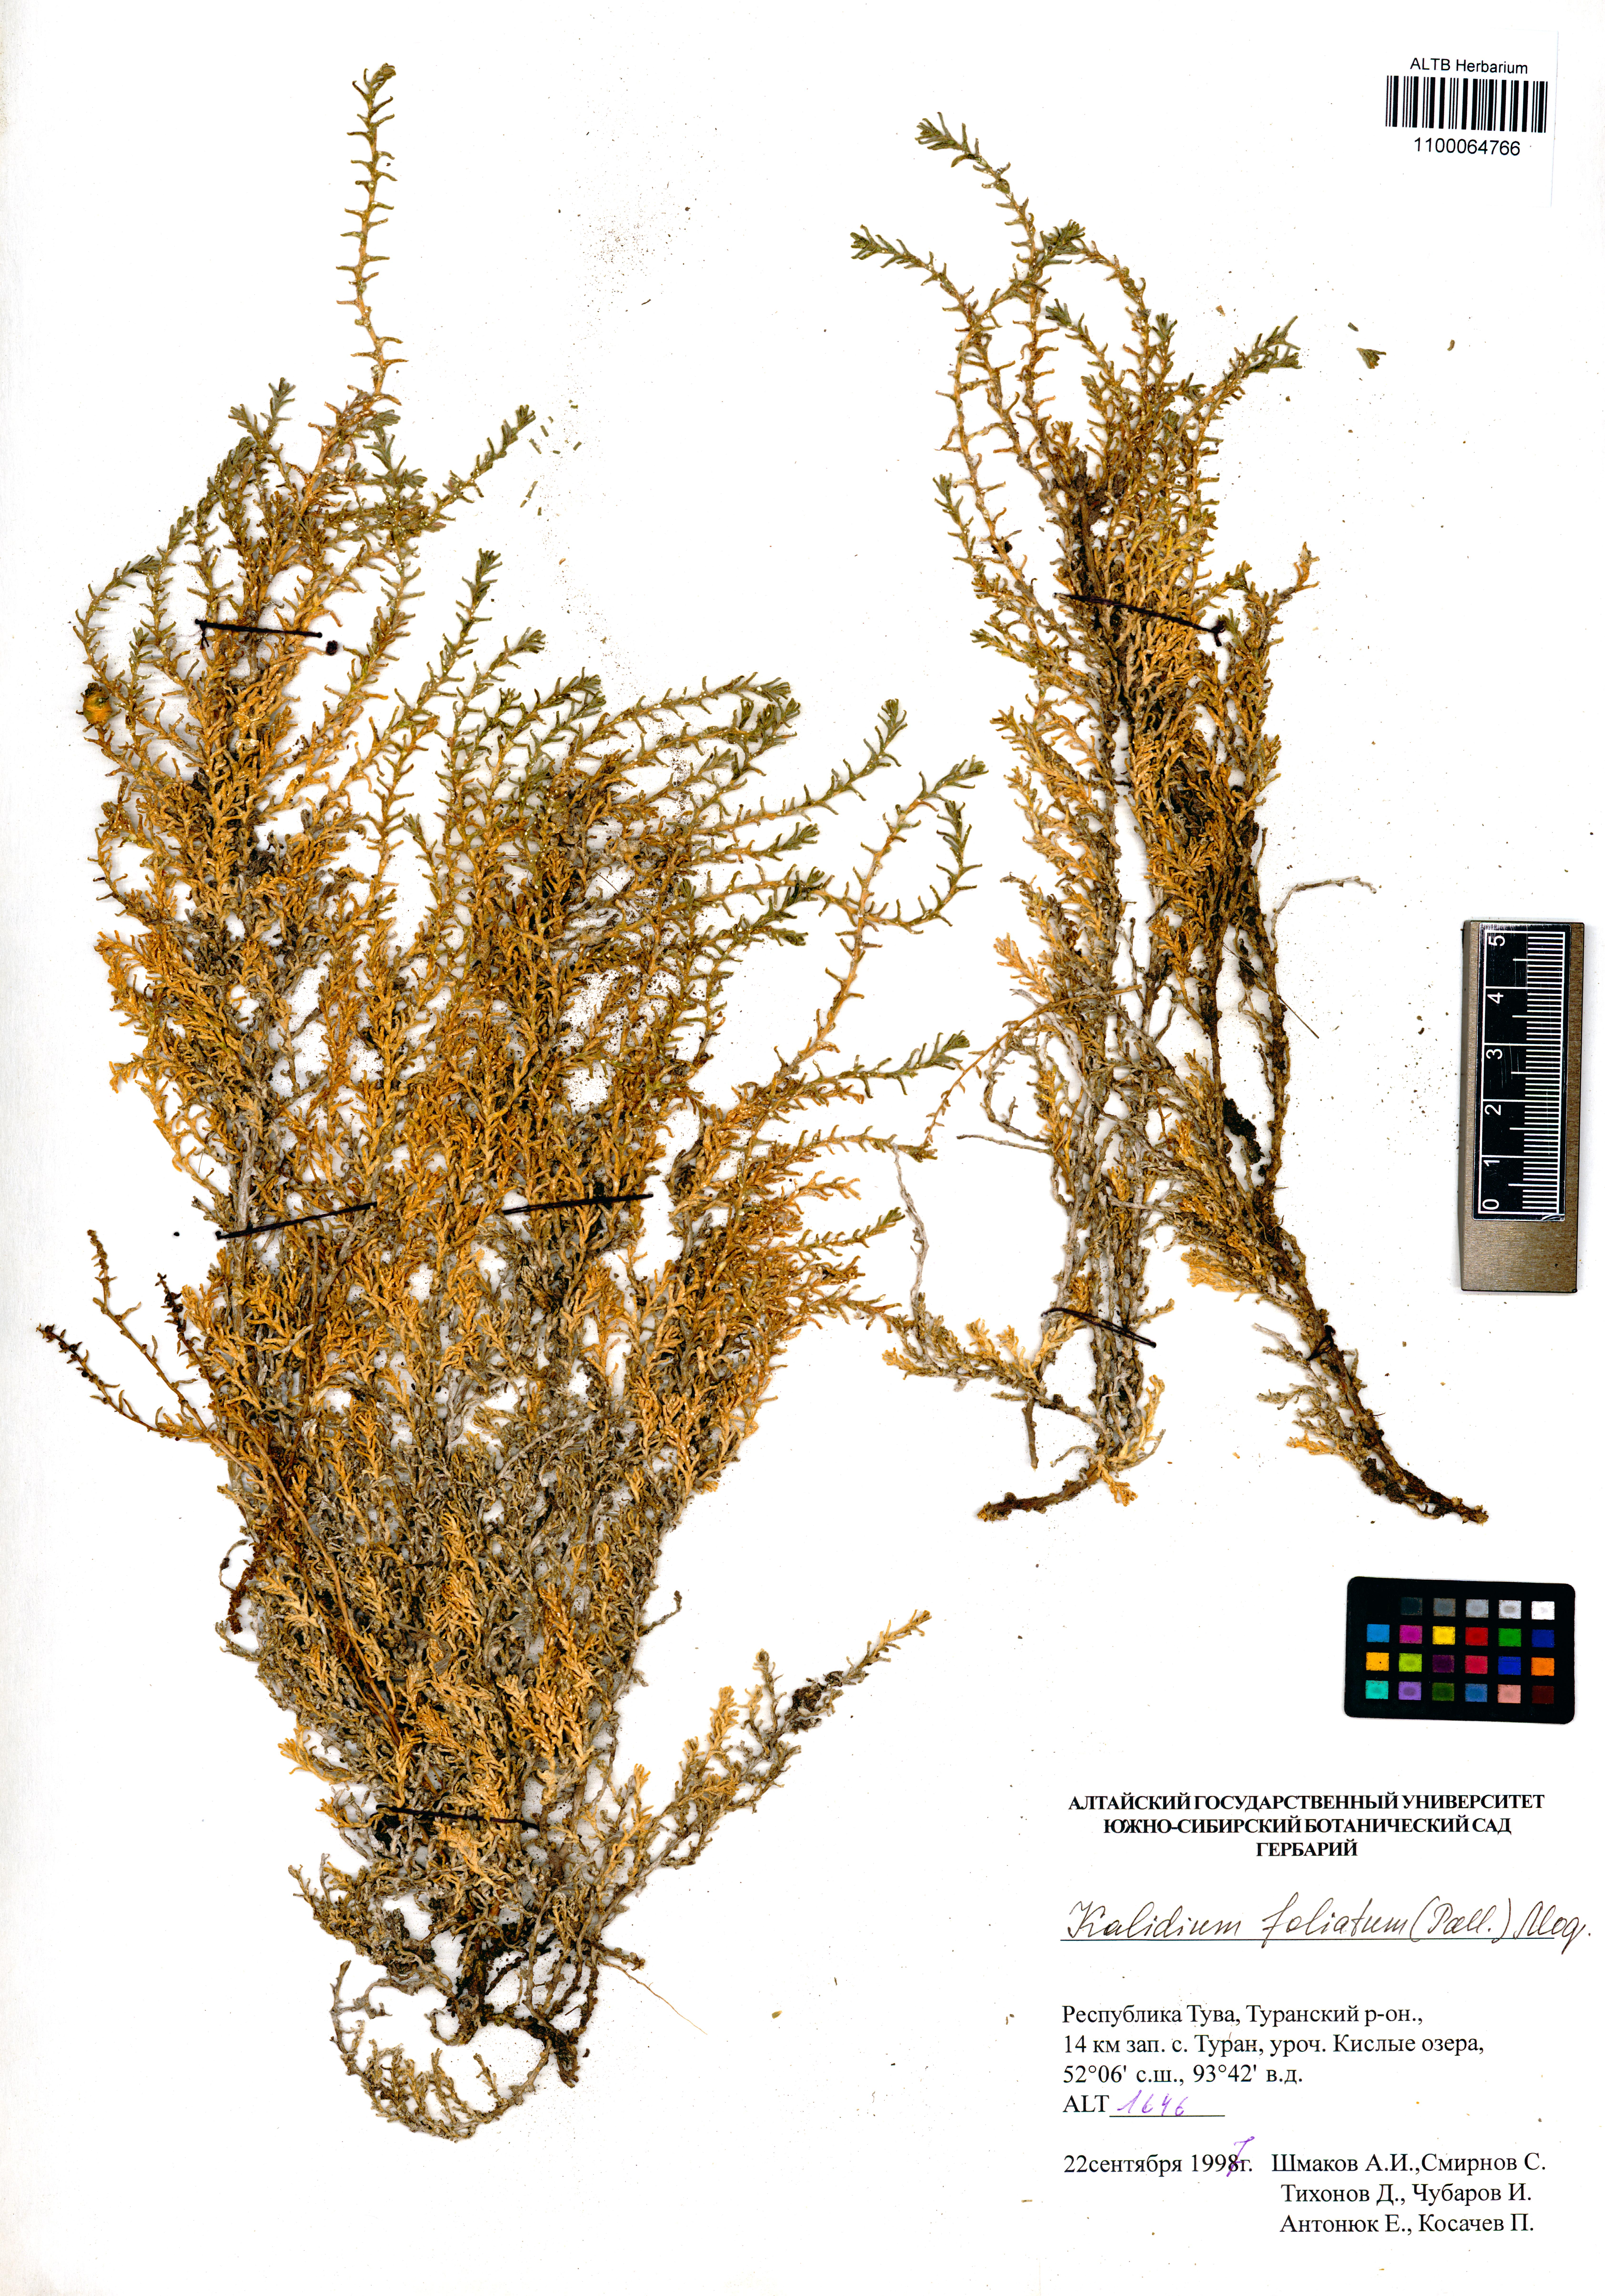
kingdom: Plantae
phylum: Tracheophyta
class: Magnoliopsida
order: Caryophyllales
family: Amaranthaceae
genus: Kalidium
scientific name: Kalidium foliatum
